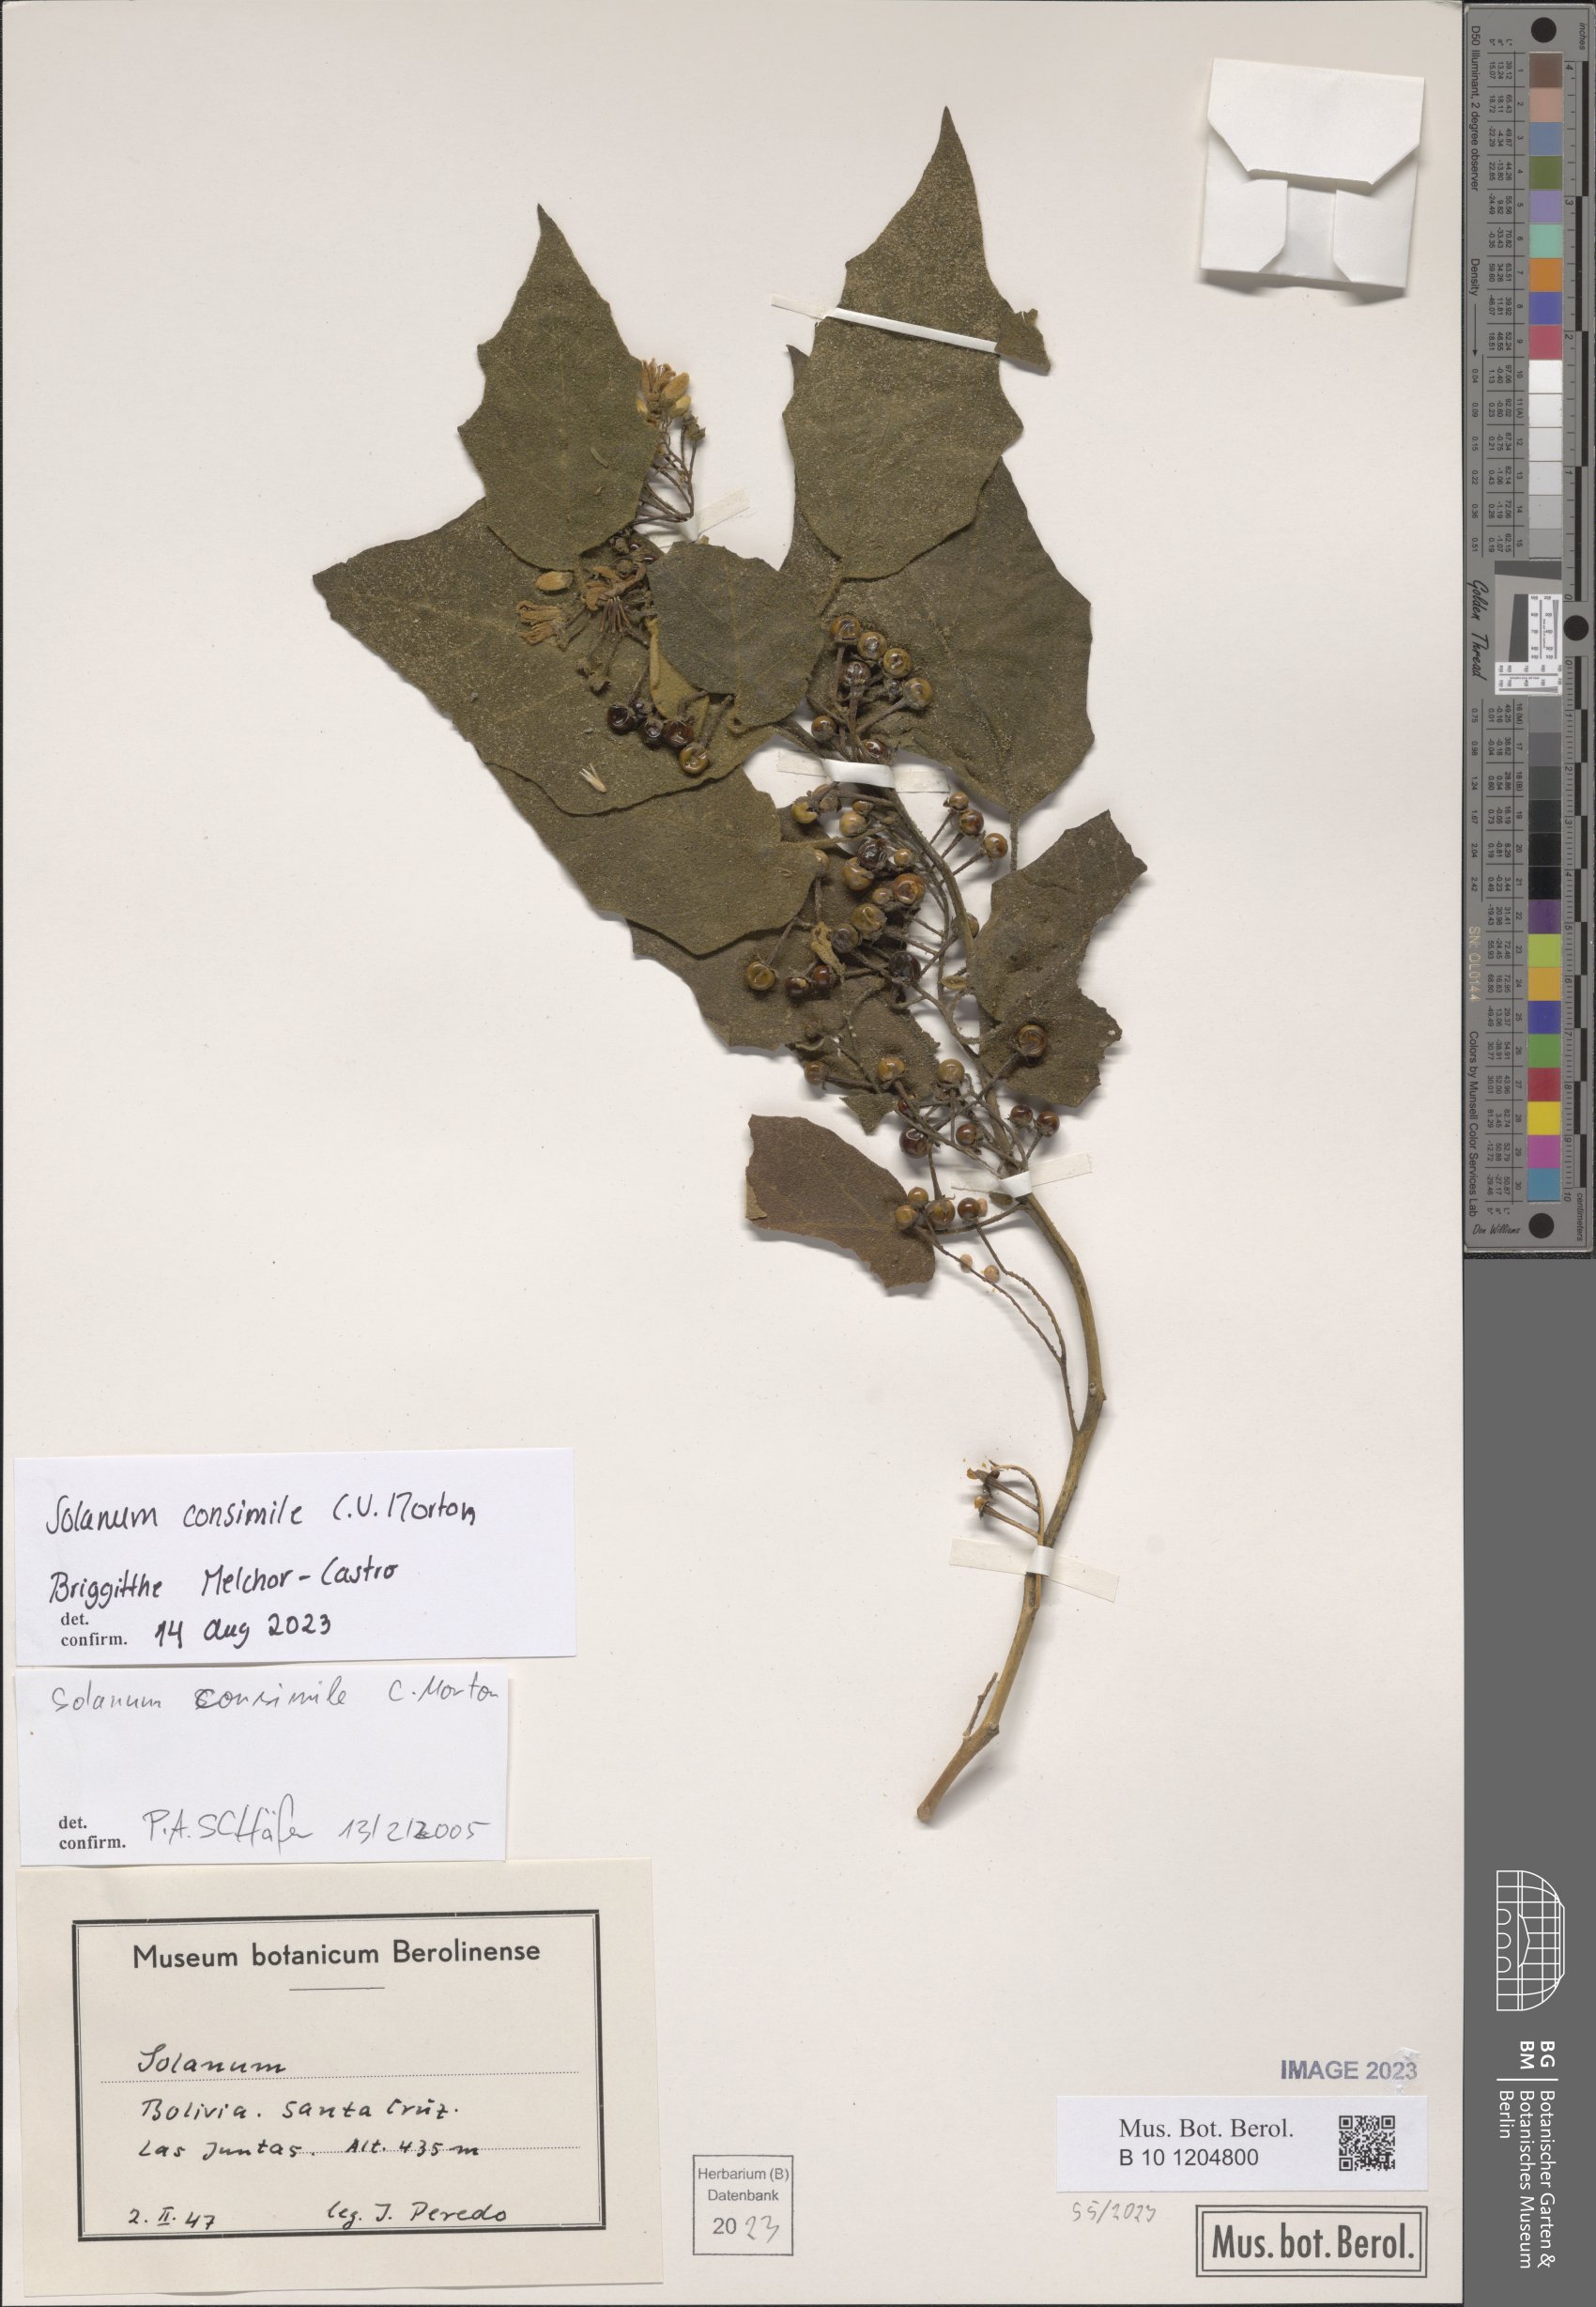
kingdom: Plantae
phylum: Tracheophyta
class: Magnoliopsida
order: Solanales
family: Solanaceae
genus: Solanum
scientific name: Solanum consimile
